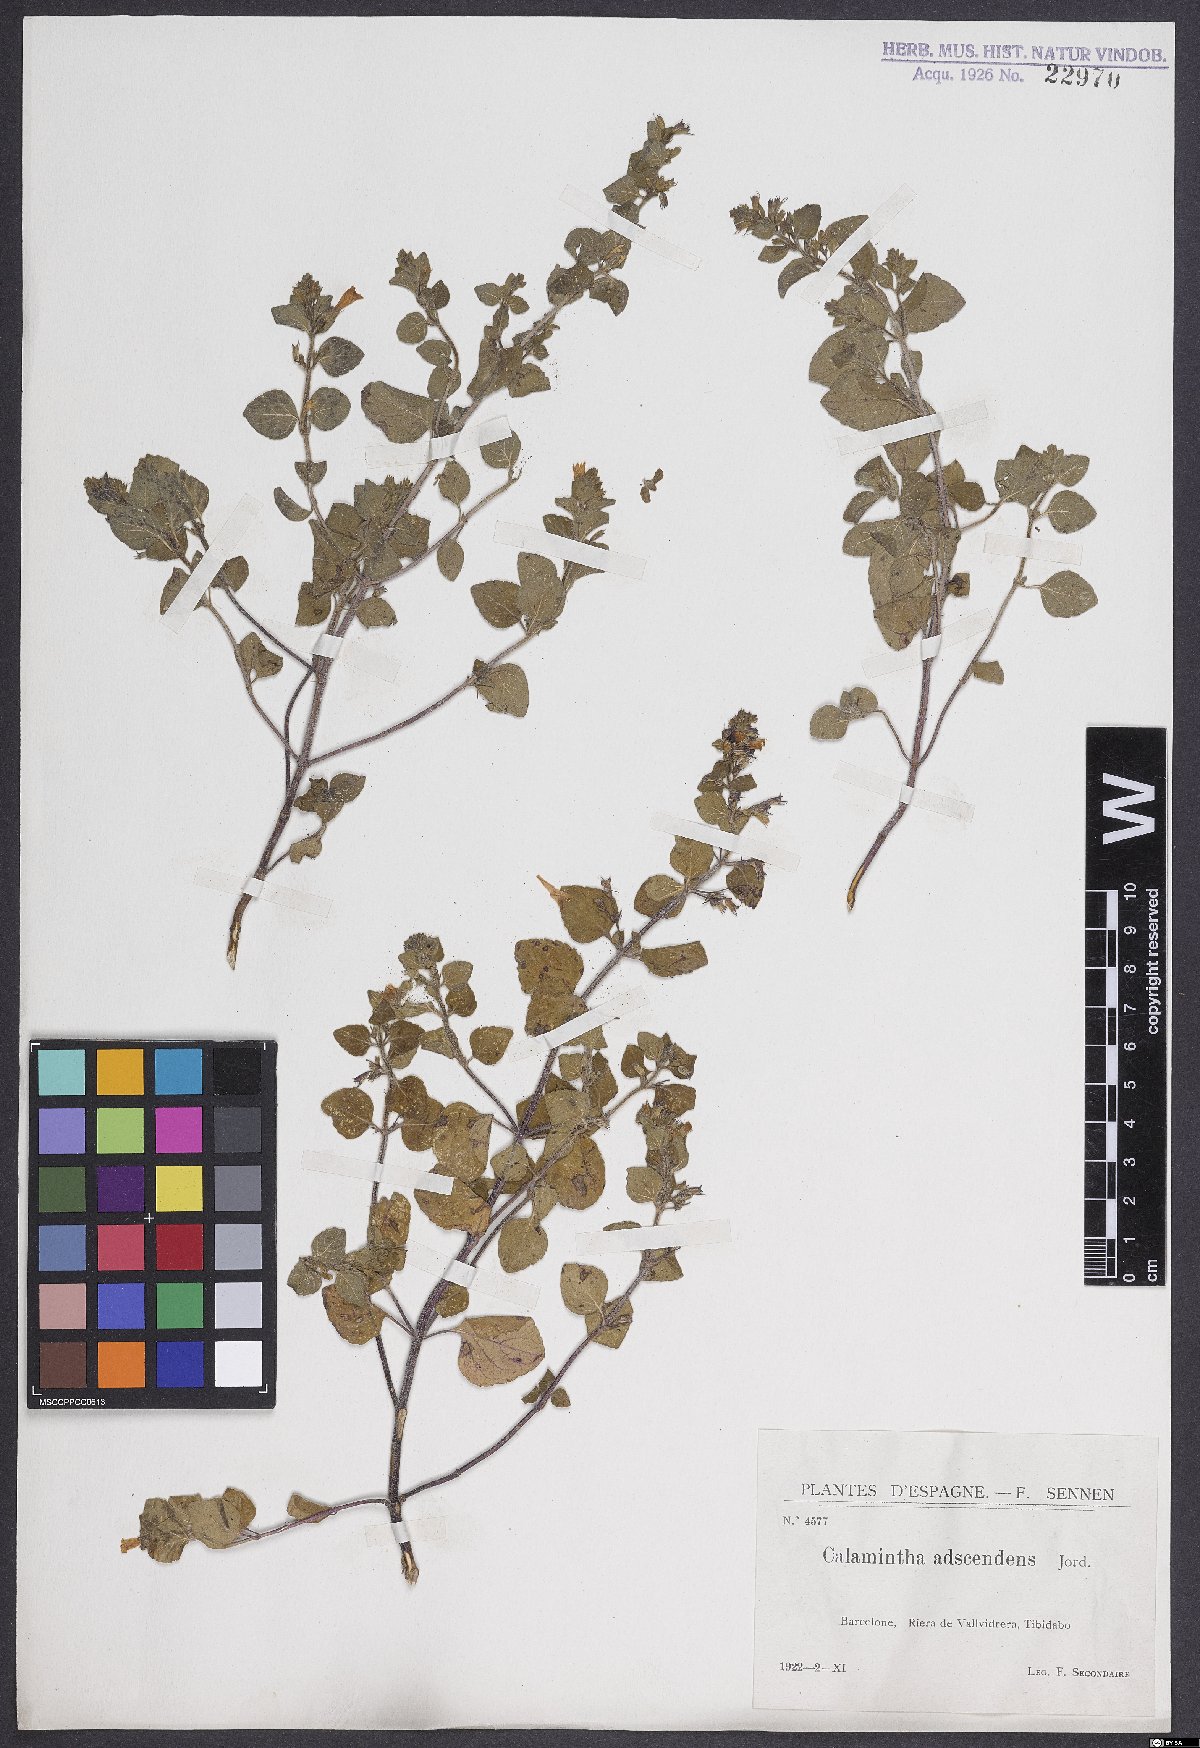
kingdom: Plantae
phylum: Tracheophyta
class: Magnoliopsida
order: Lamiales
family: Lamiaceae
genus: Clinopodium
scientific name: Clinopodium menthifolium
